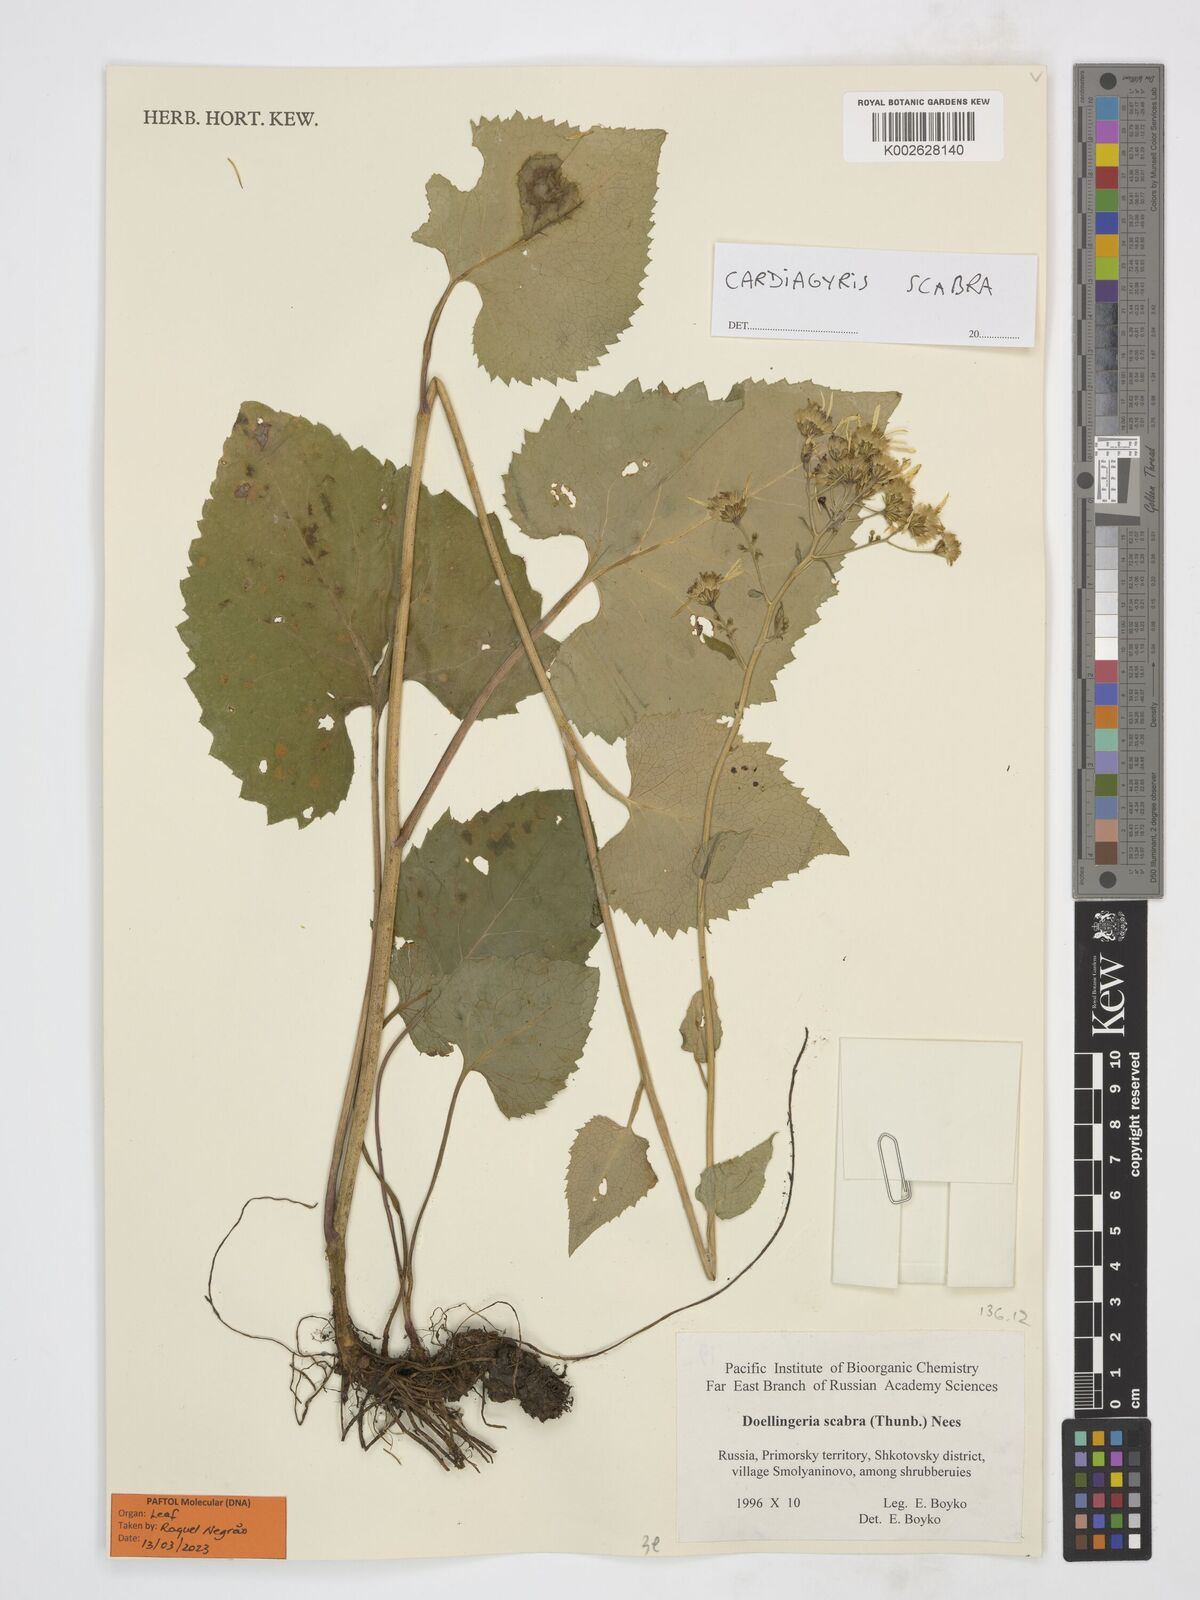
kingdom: Plantae
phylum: Tracheophyta
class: Magnoliopsida
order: Asterales
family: Asteraceae
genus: Cardiagyris
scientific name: Cardiagyris scabra
